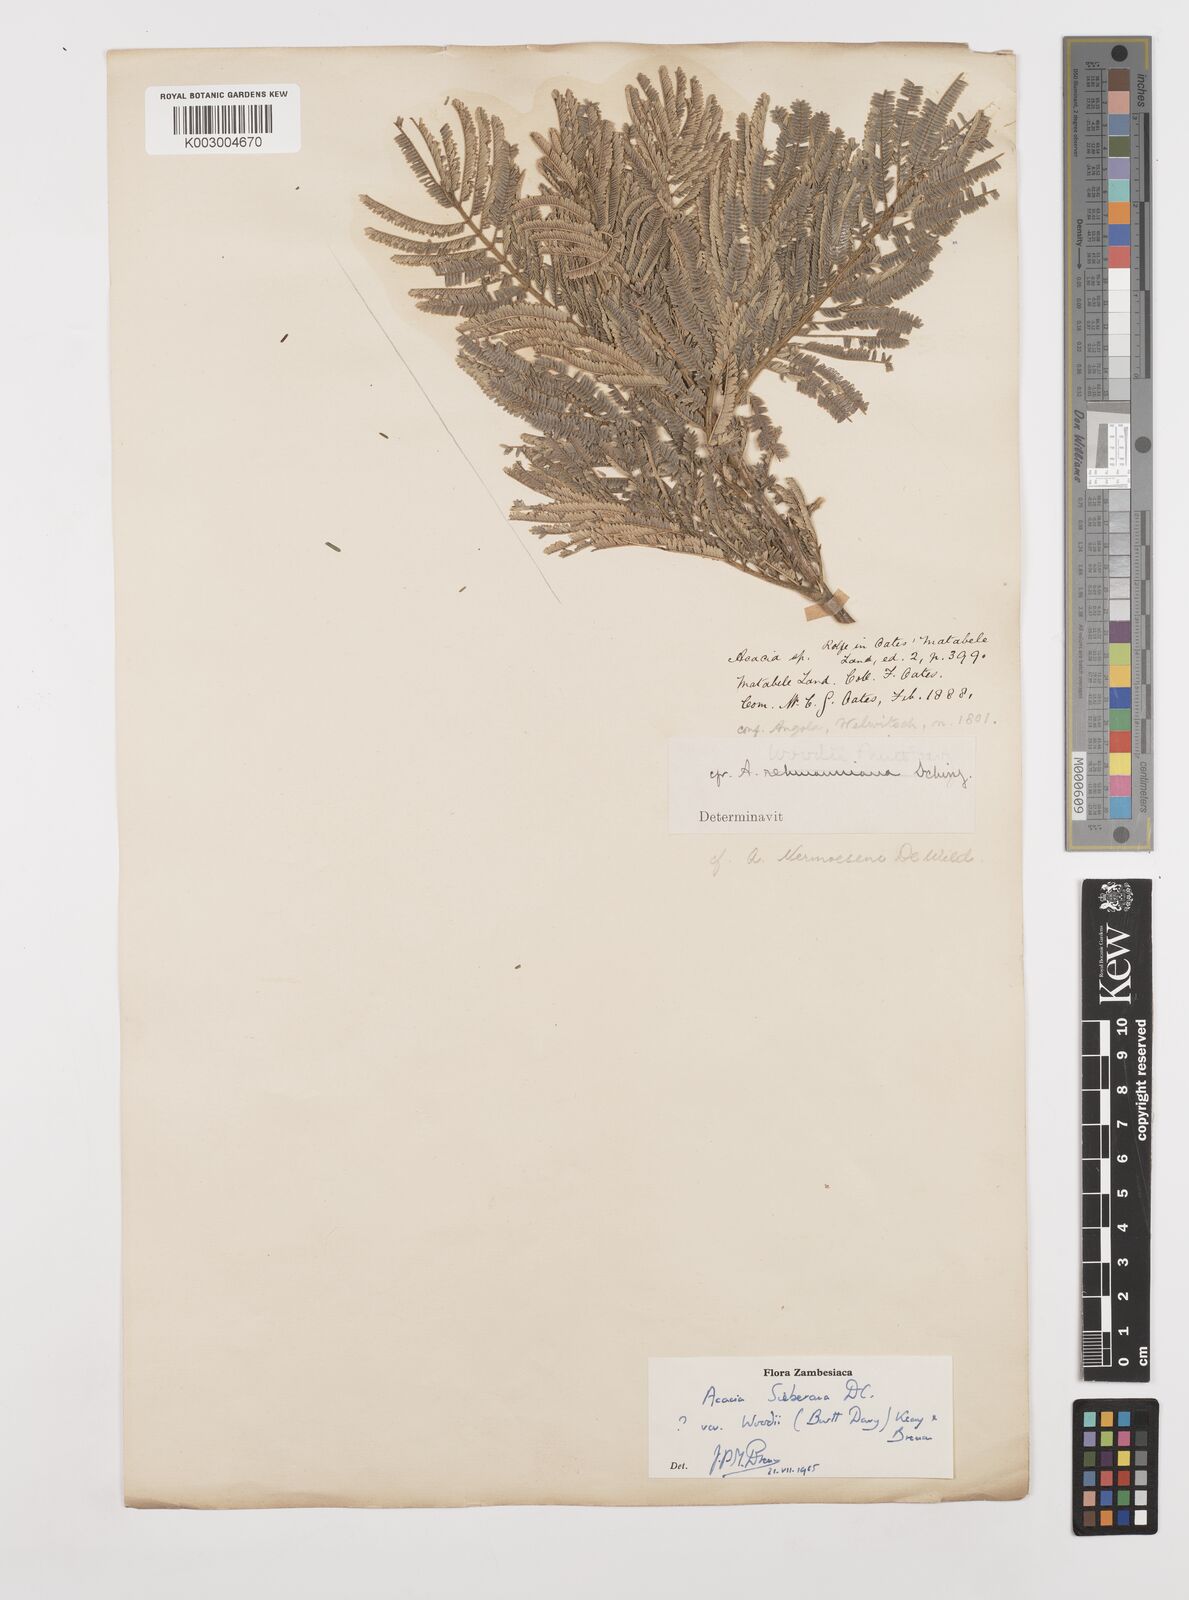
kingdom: Plantae
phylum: Tracheophyta
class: Magnoliopsida
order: Fabales
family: Fabaceae
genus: Vachellia
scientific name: Vachellia sieberiana
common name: Flat-topped thorn
